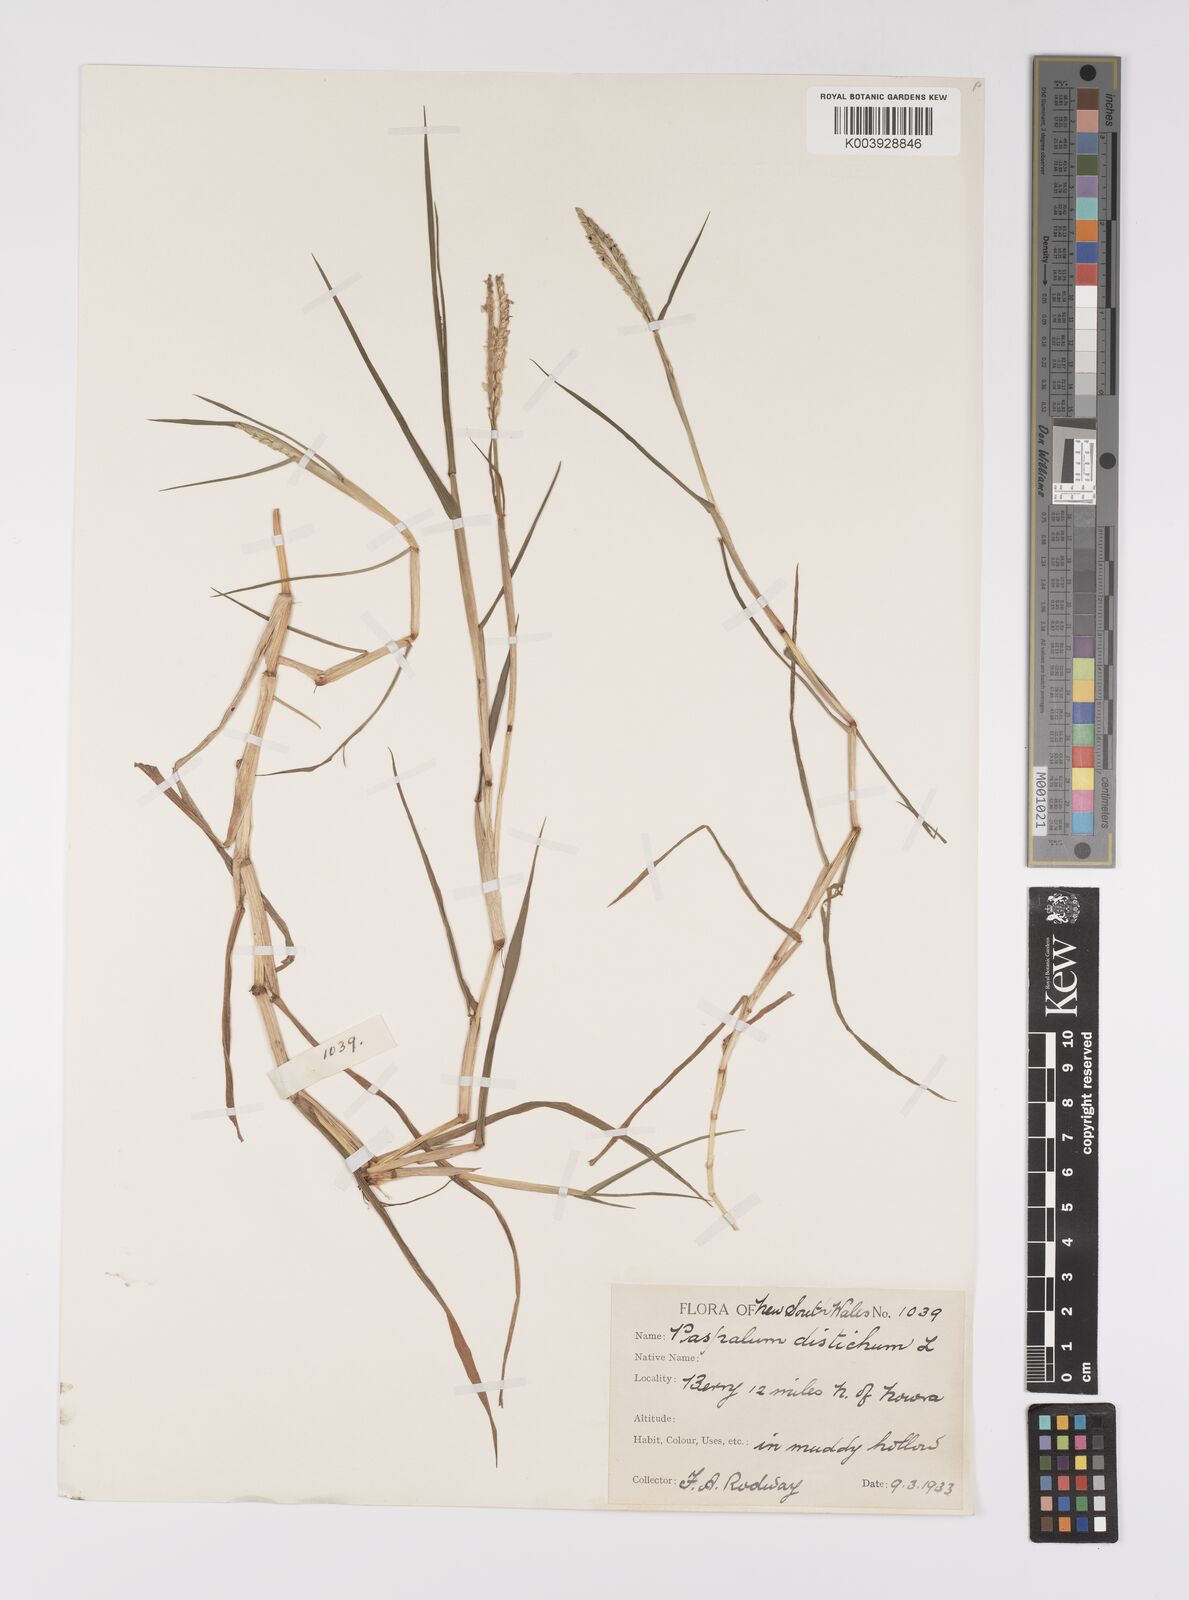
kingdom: Plantae
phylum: Tracheophyta
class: Liliopsida
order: Poales
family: Poaceae
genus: Paspalum
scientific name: Paspalum distichum
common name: Knotgrass
